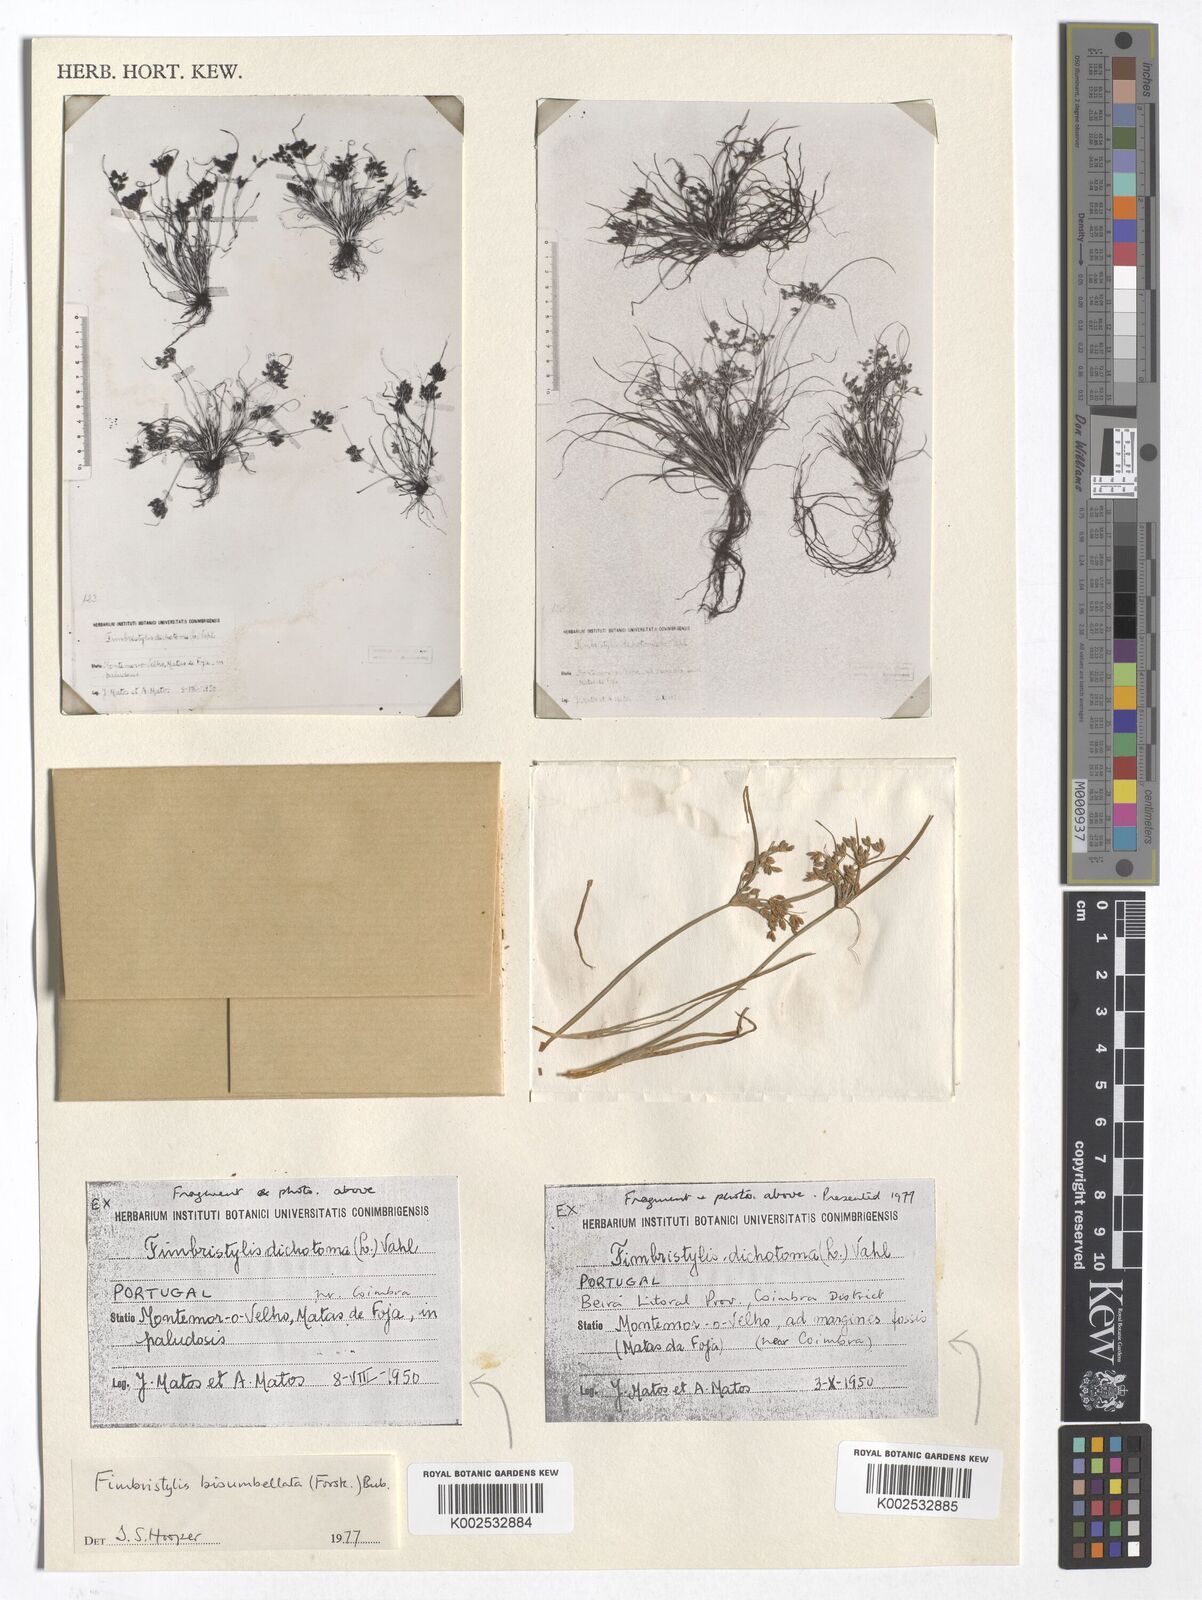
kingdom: Plantae
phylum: Tracheophyta
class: Liliopsida
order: Poales
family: Cyperaceae
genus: Fimbristylis
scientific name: Fimbristylis bisumbellata
